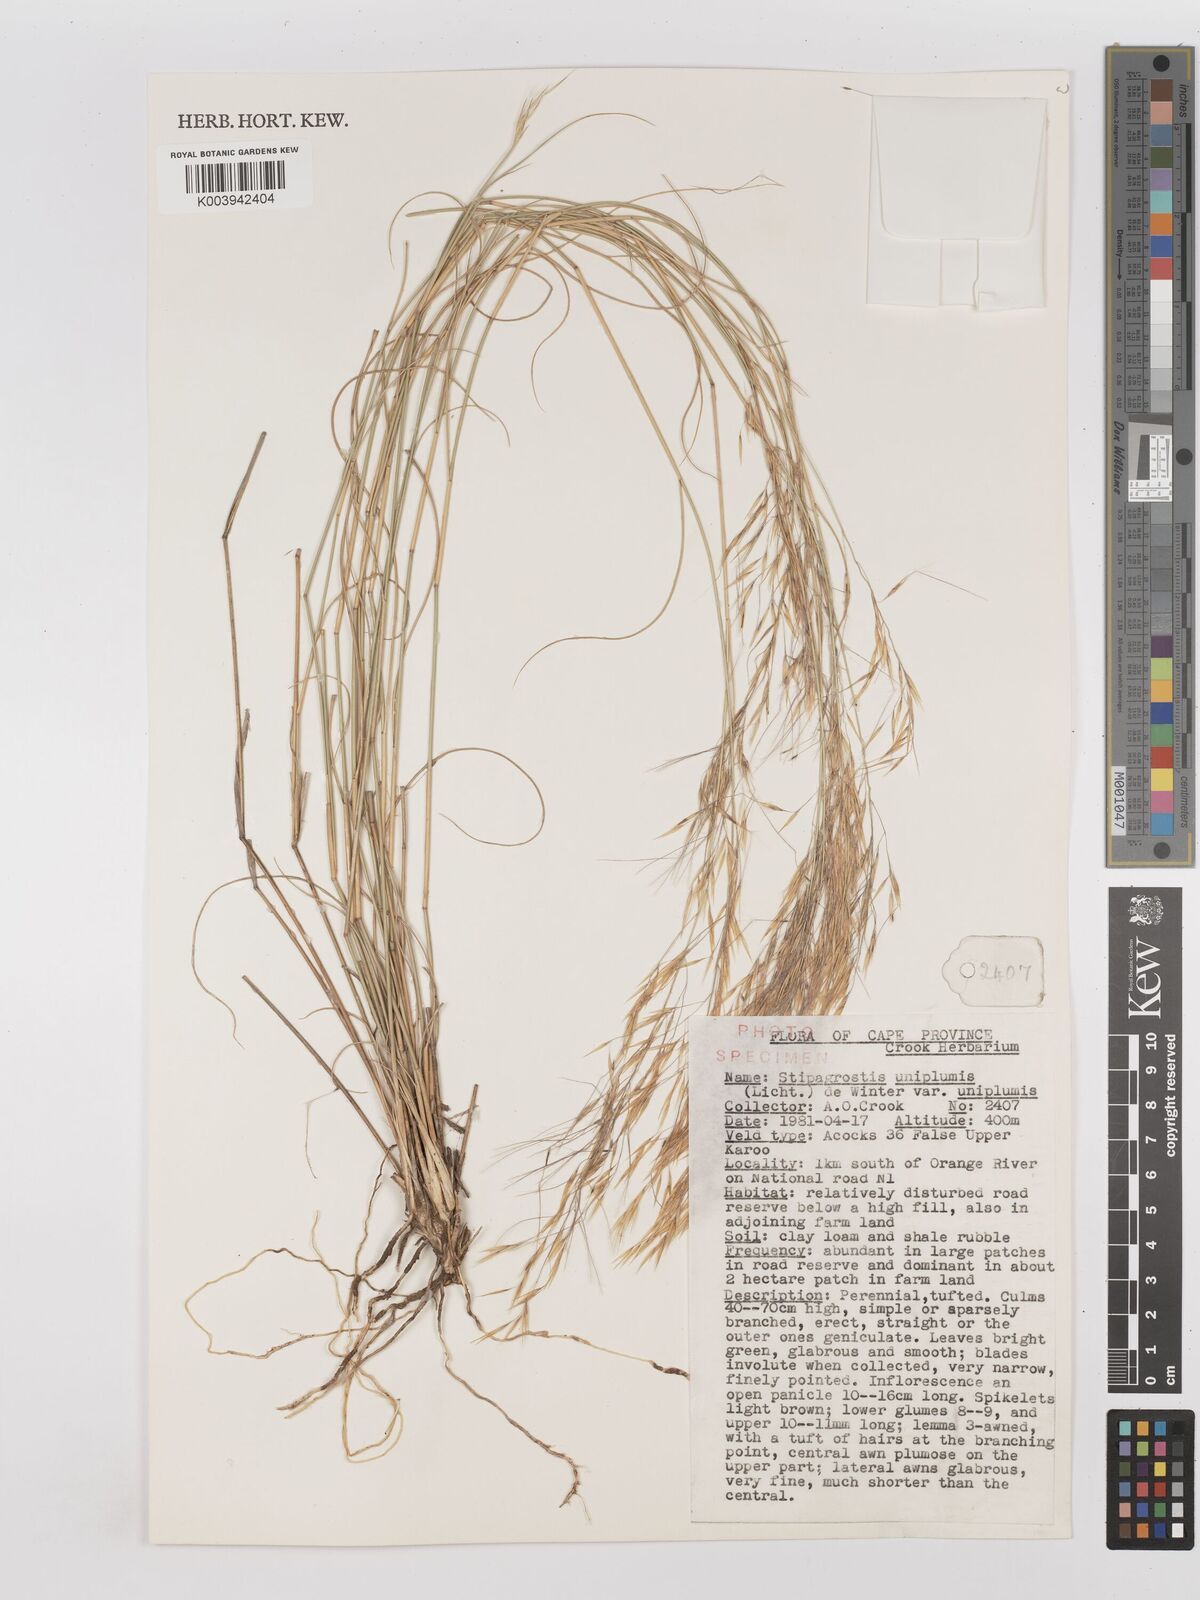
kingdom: Plantae
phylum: Tracheophyta
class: Liliopsida
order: Poales
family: Poaceae
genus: Stipagrostis
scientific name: Stipagrostis uniplumis
